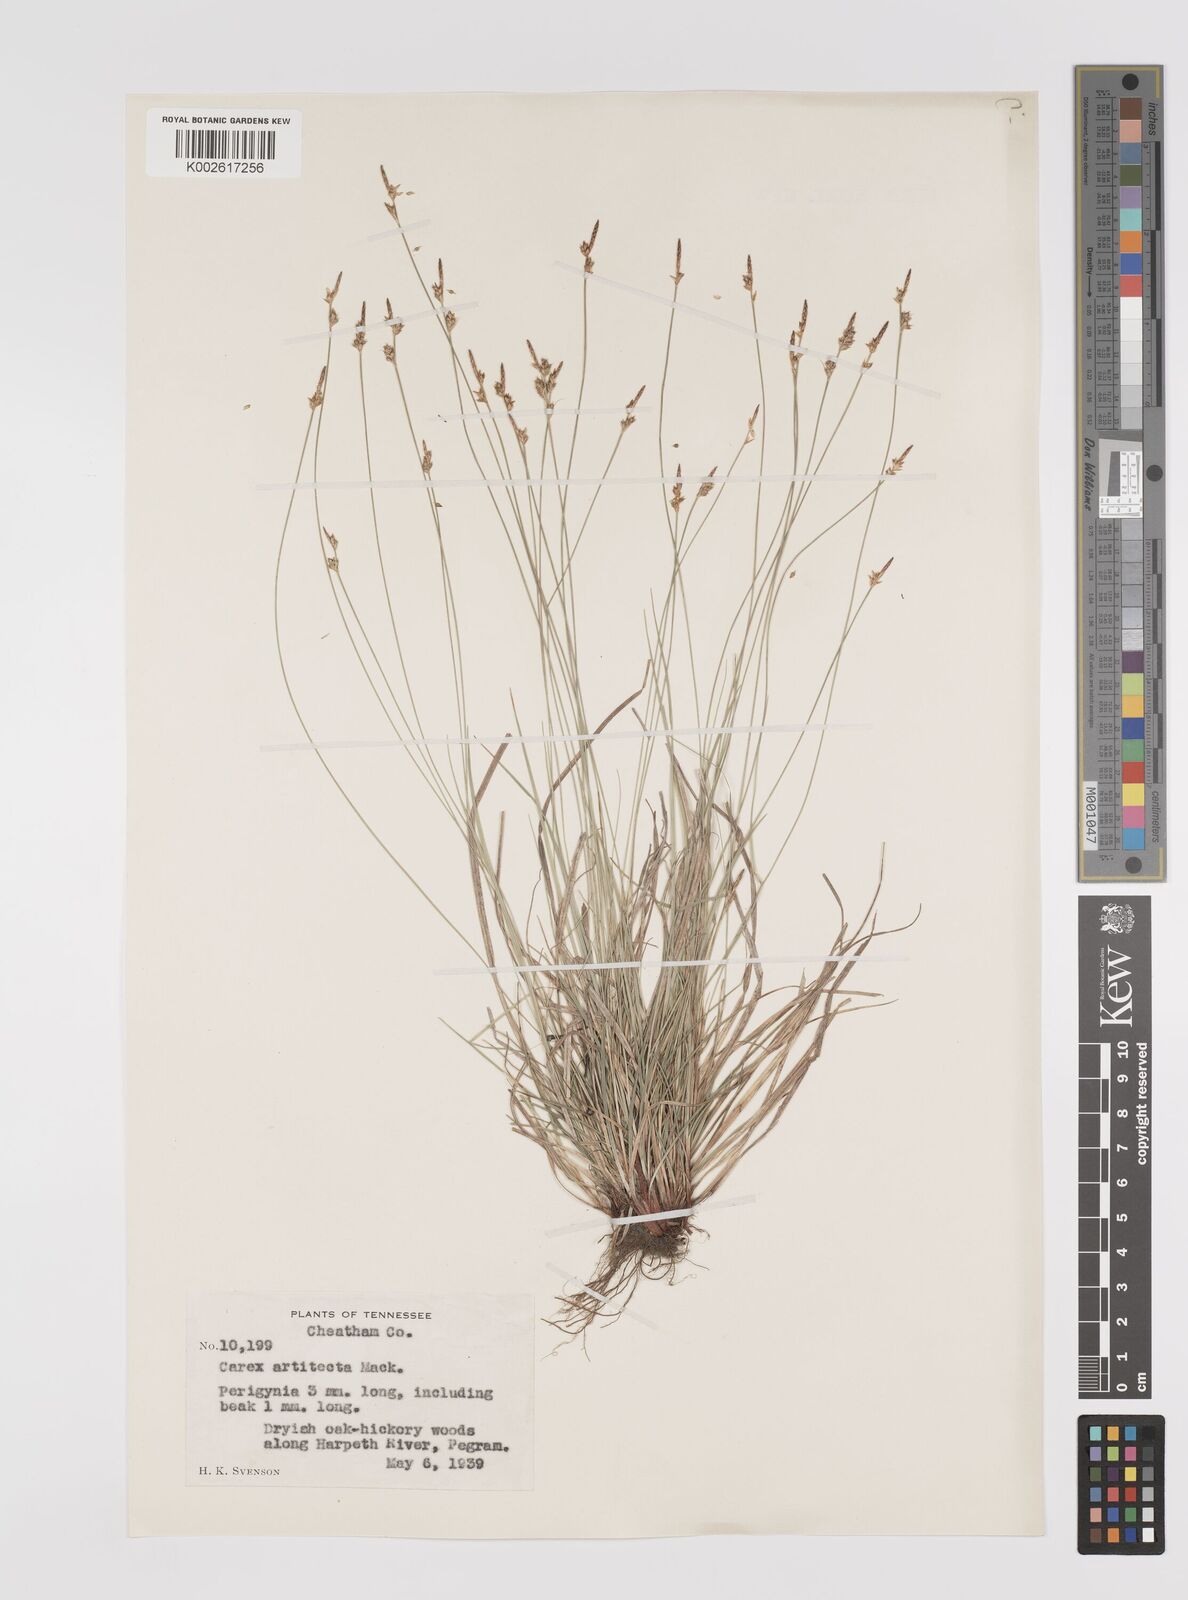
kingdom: Plantae
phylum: Tracheophyta
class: Liliopsida
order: Poales
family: Cyperaceae
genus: Carex
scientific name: Carex albicans
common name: Bellow-beaked sedge
